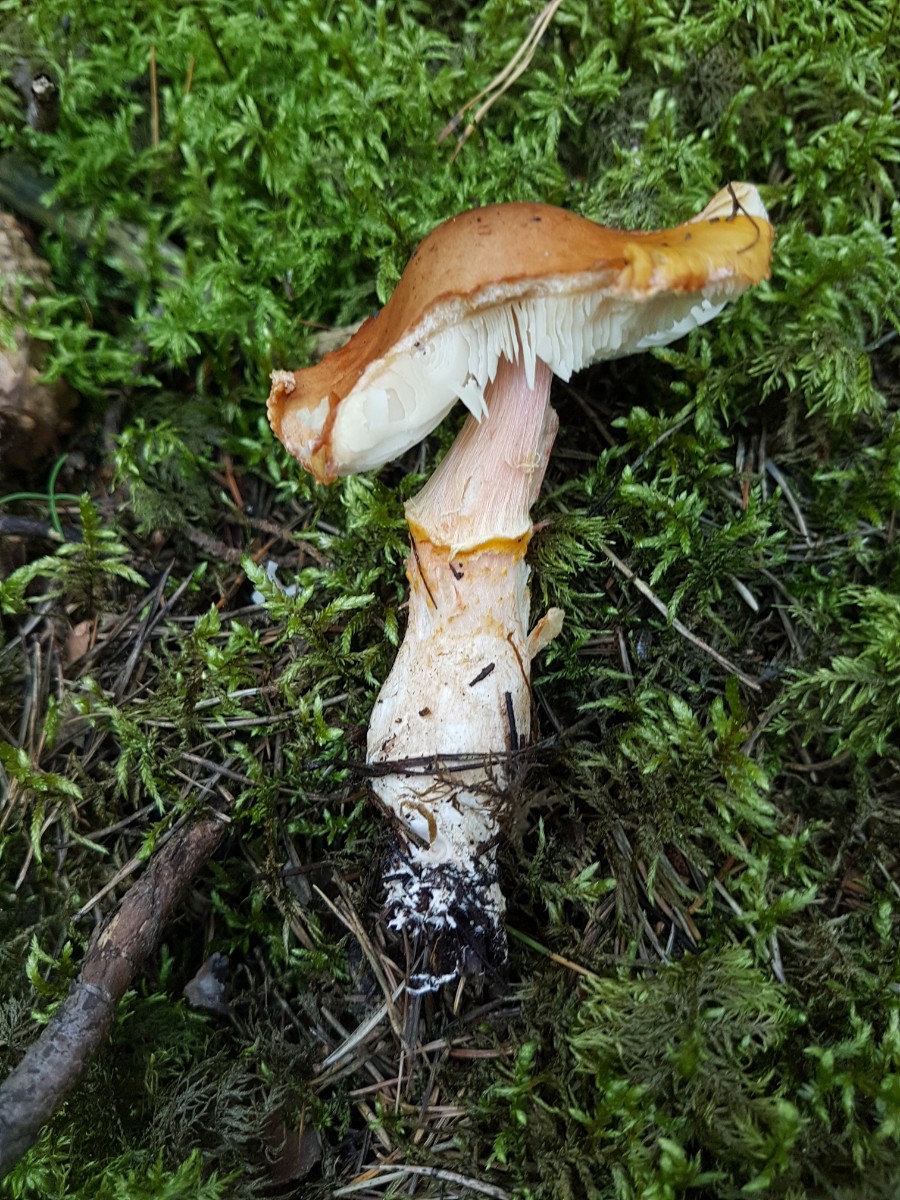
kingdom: Fungi
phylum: Basidiomycota
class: Agaricomycetes
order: Agaricales
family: Amanitaceae
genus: Limacella
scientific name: Limacella delicata
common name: orangebrun snekkehat
